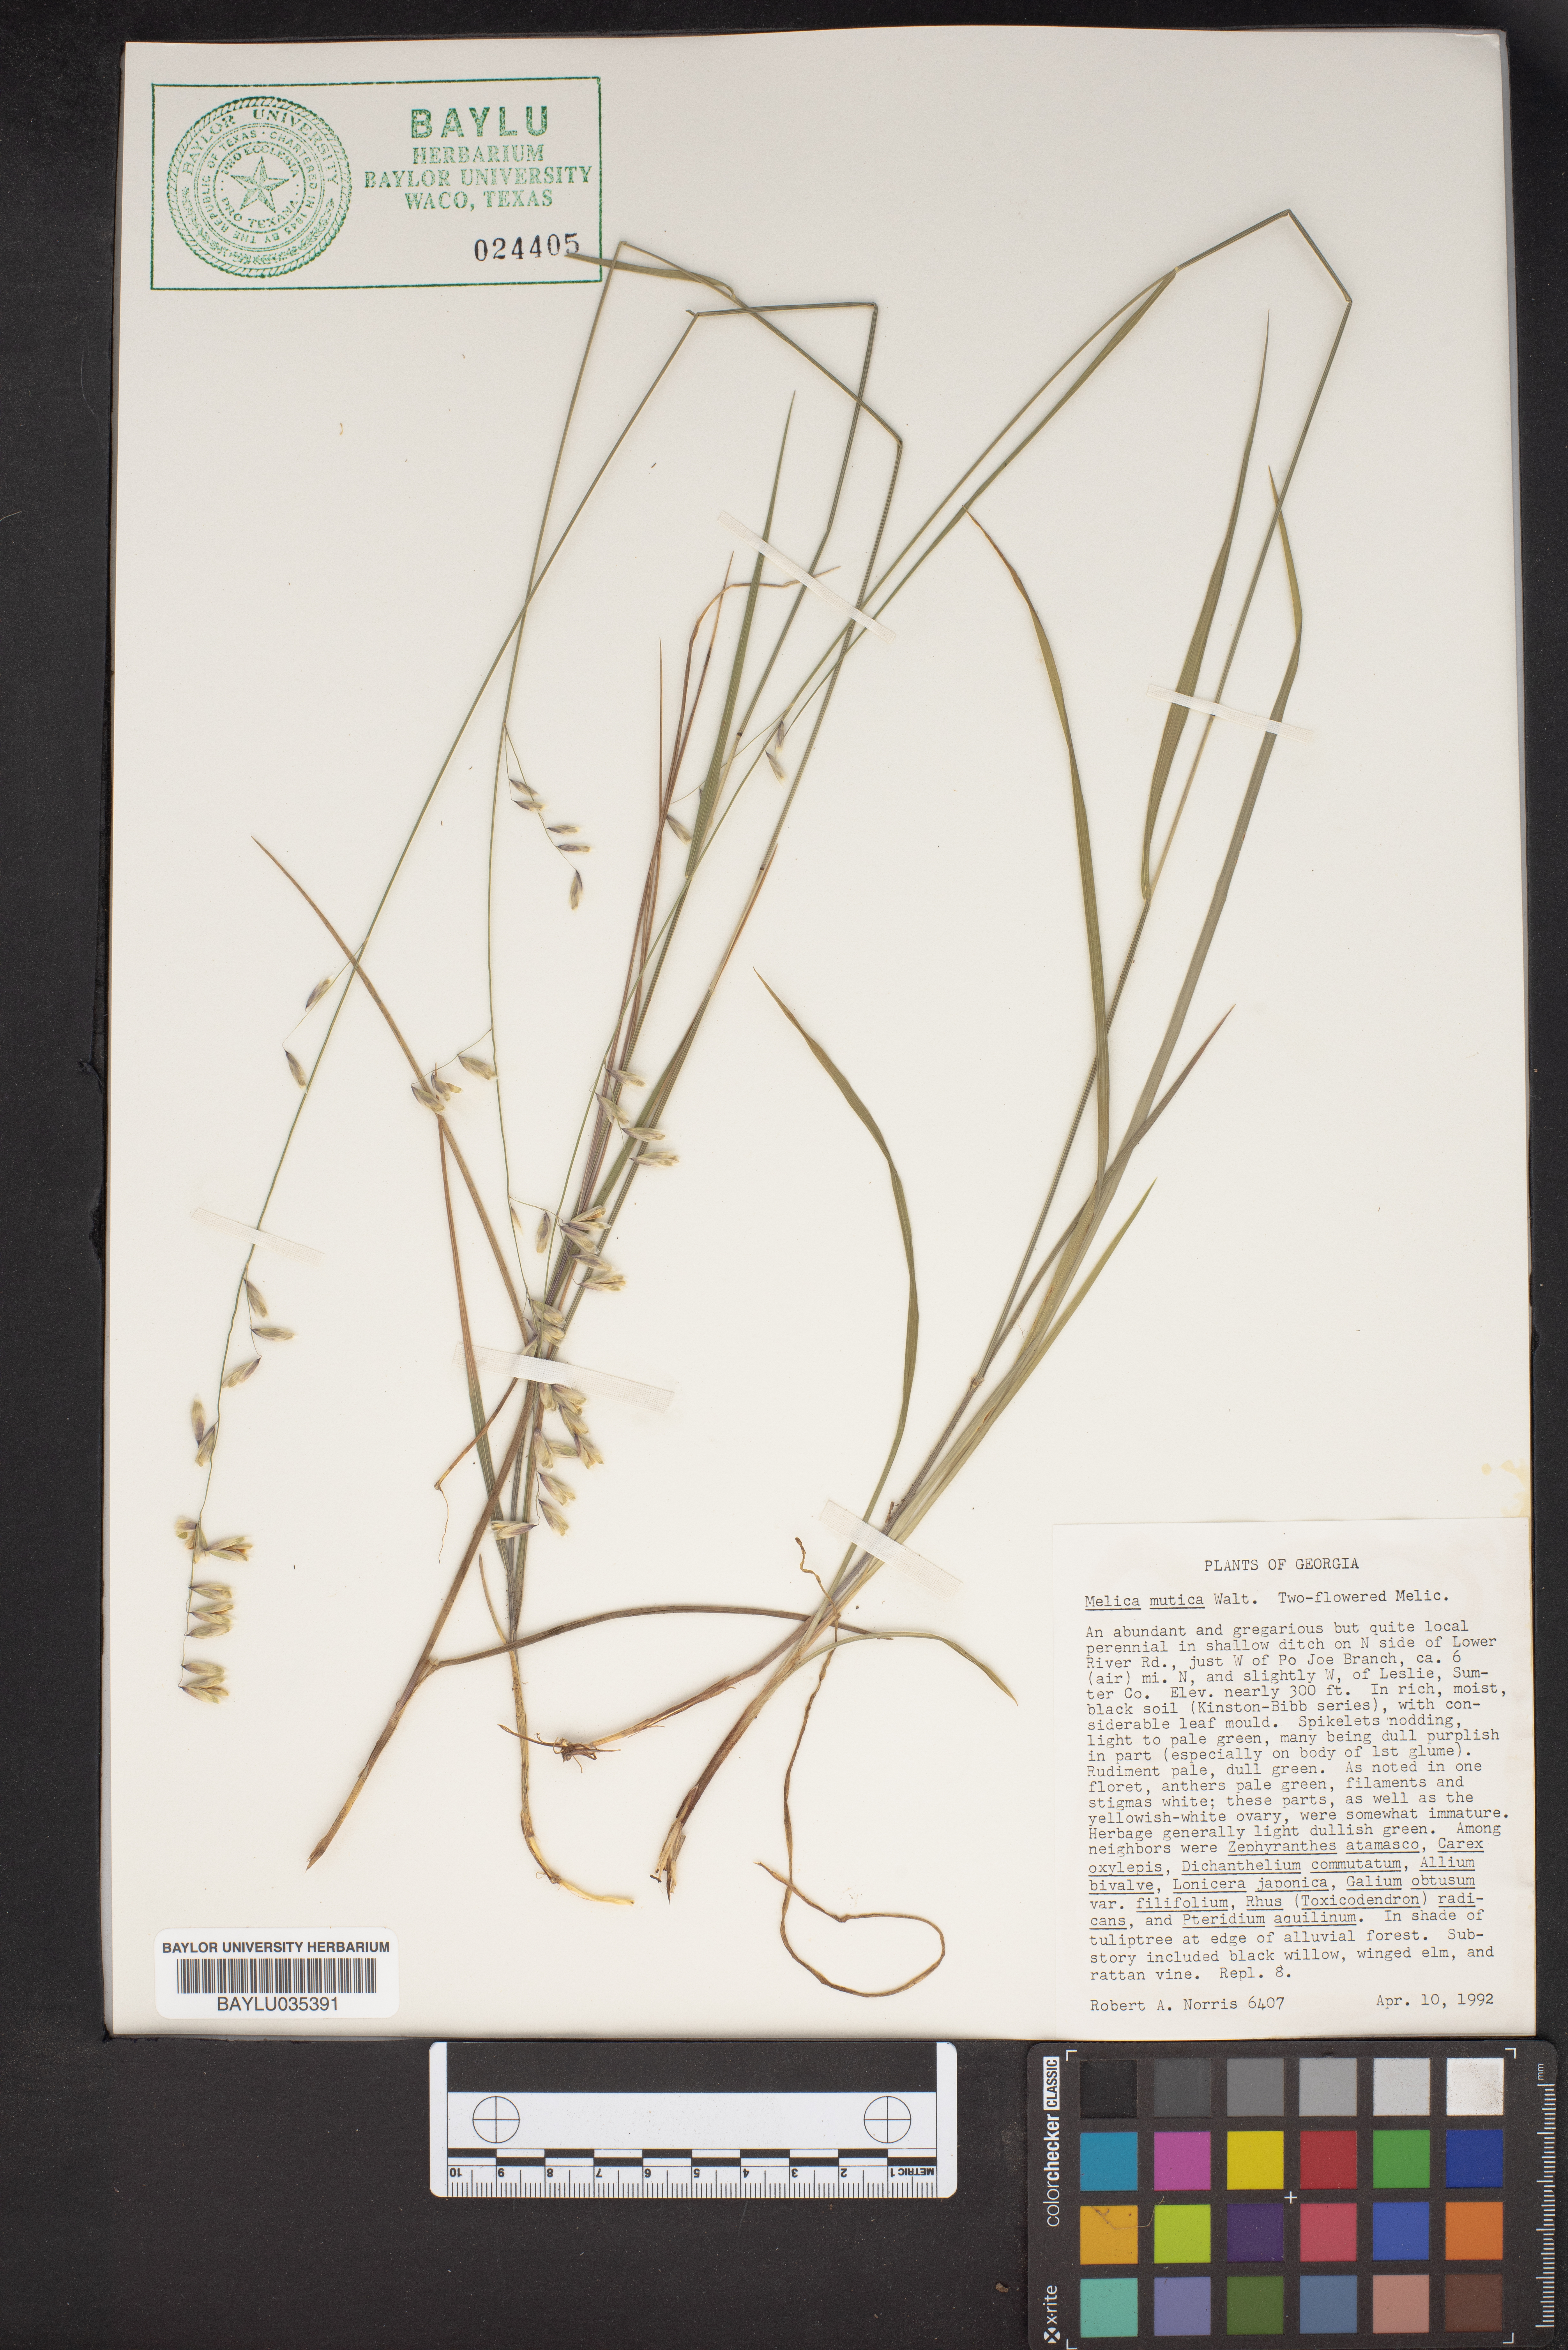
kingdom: Plantae
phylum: Tracheophyta
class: Liliopsida
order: Poales
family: Poaceae
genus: Melica
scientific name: Melica mutica
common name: Two-flower melic
